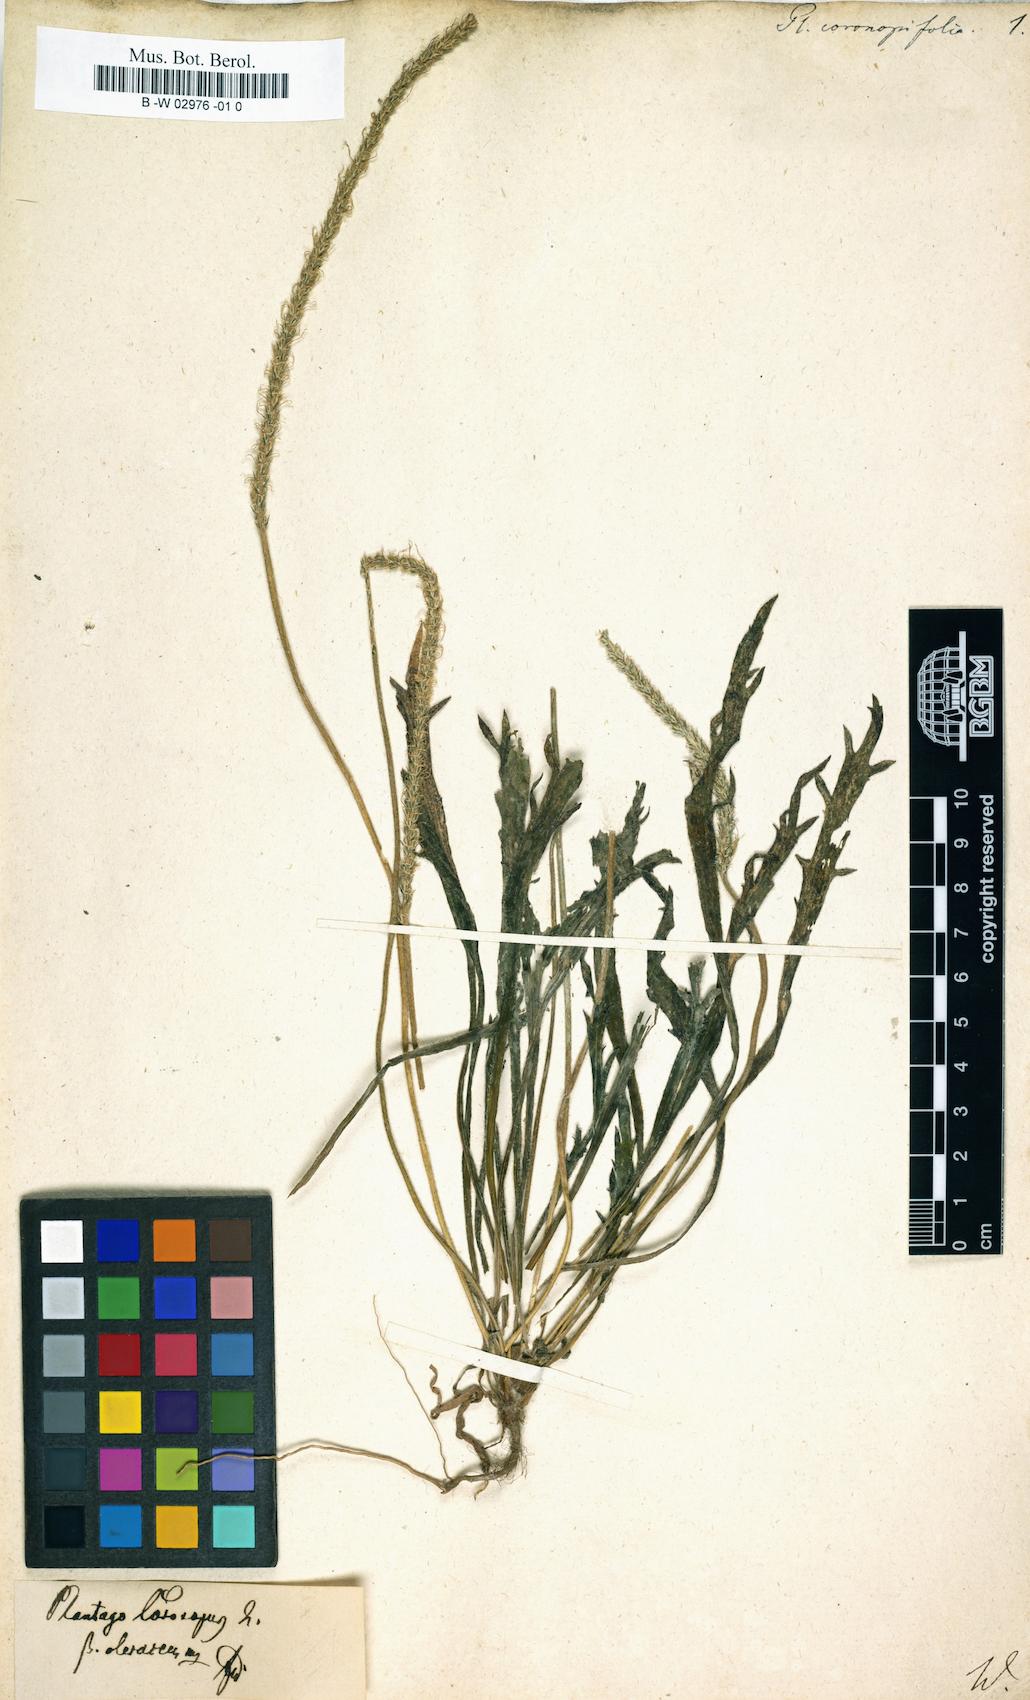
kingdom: Plantae
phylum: Tracheophyta
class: Magnoliopsida
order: Lamiales
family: Plantaginaceae
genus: Plantago
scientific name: Plantago
